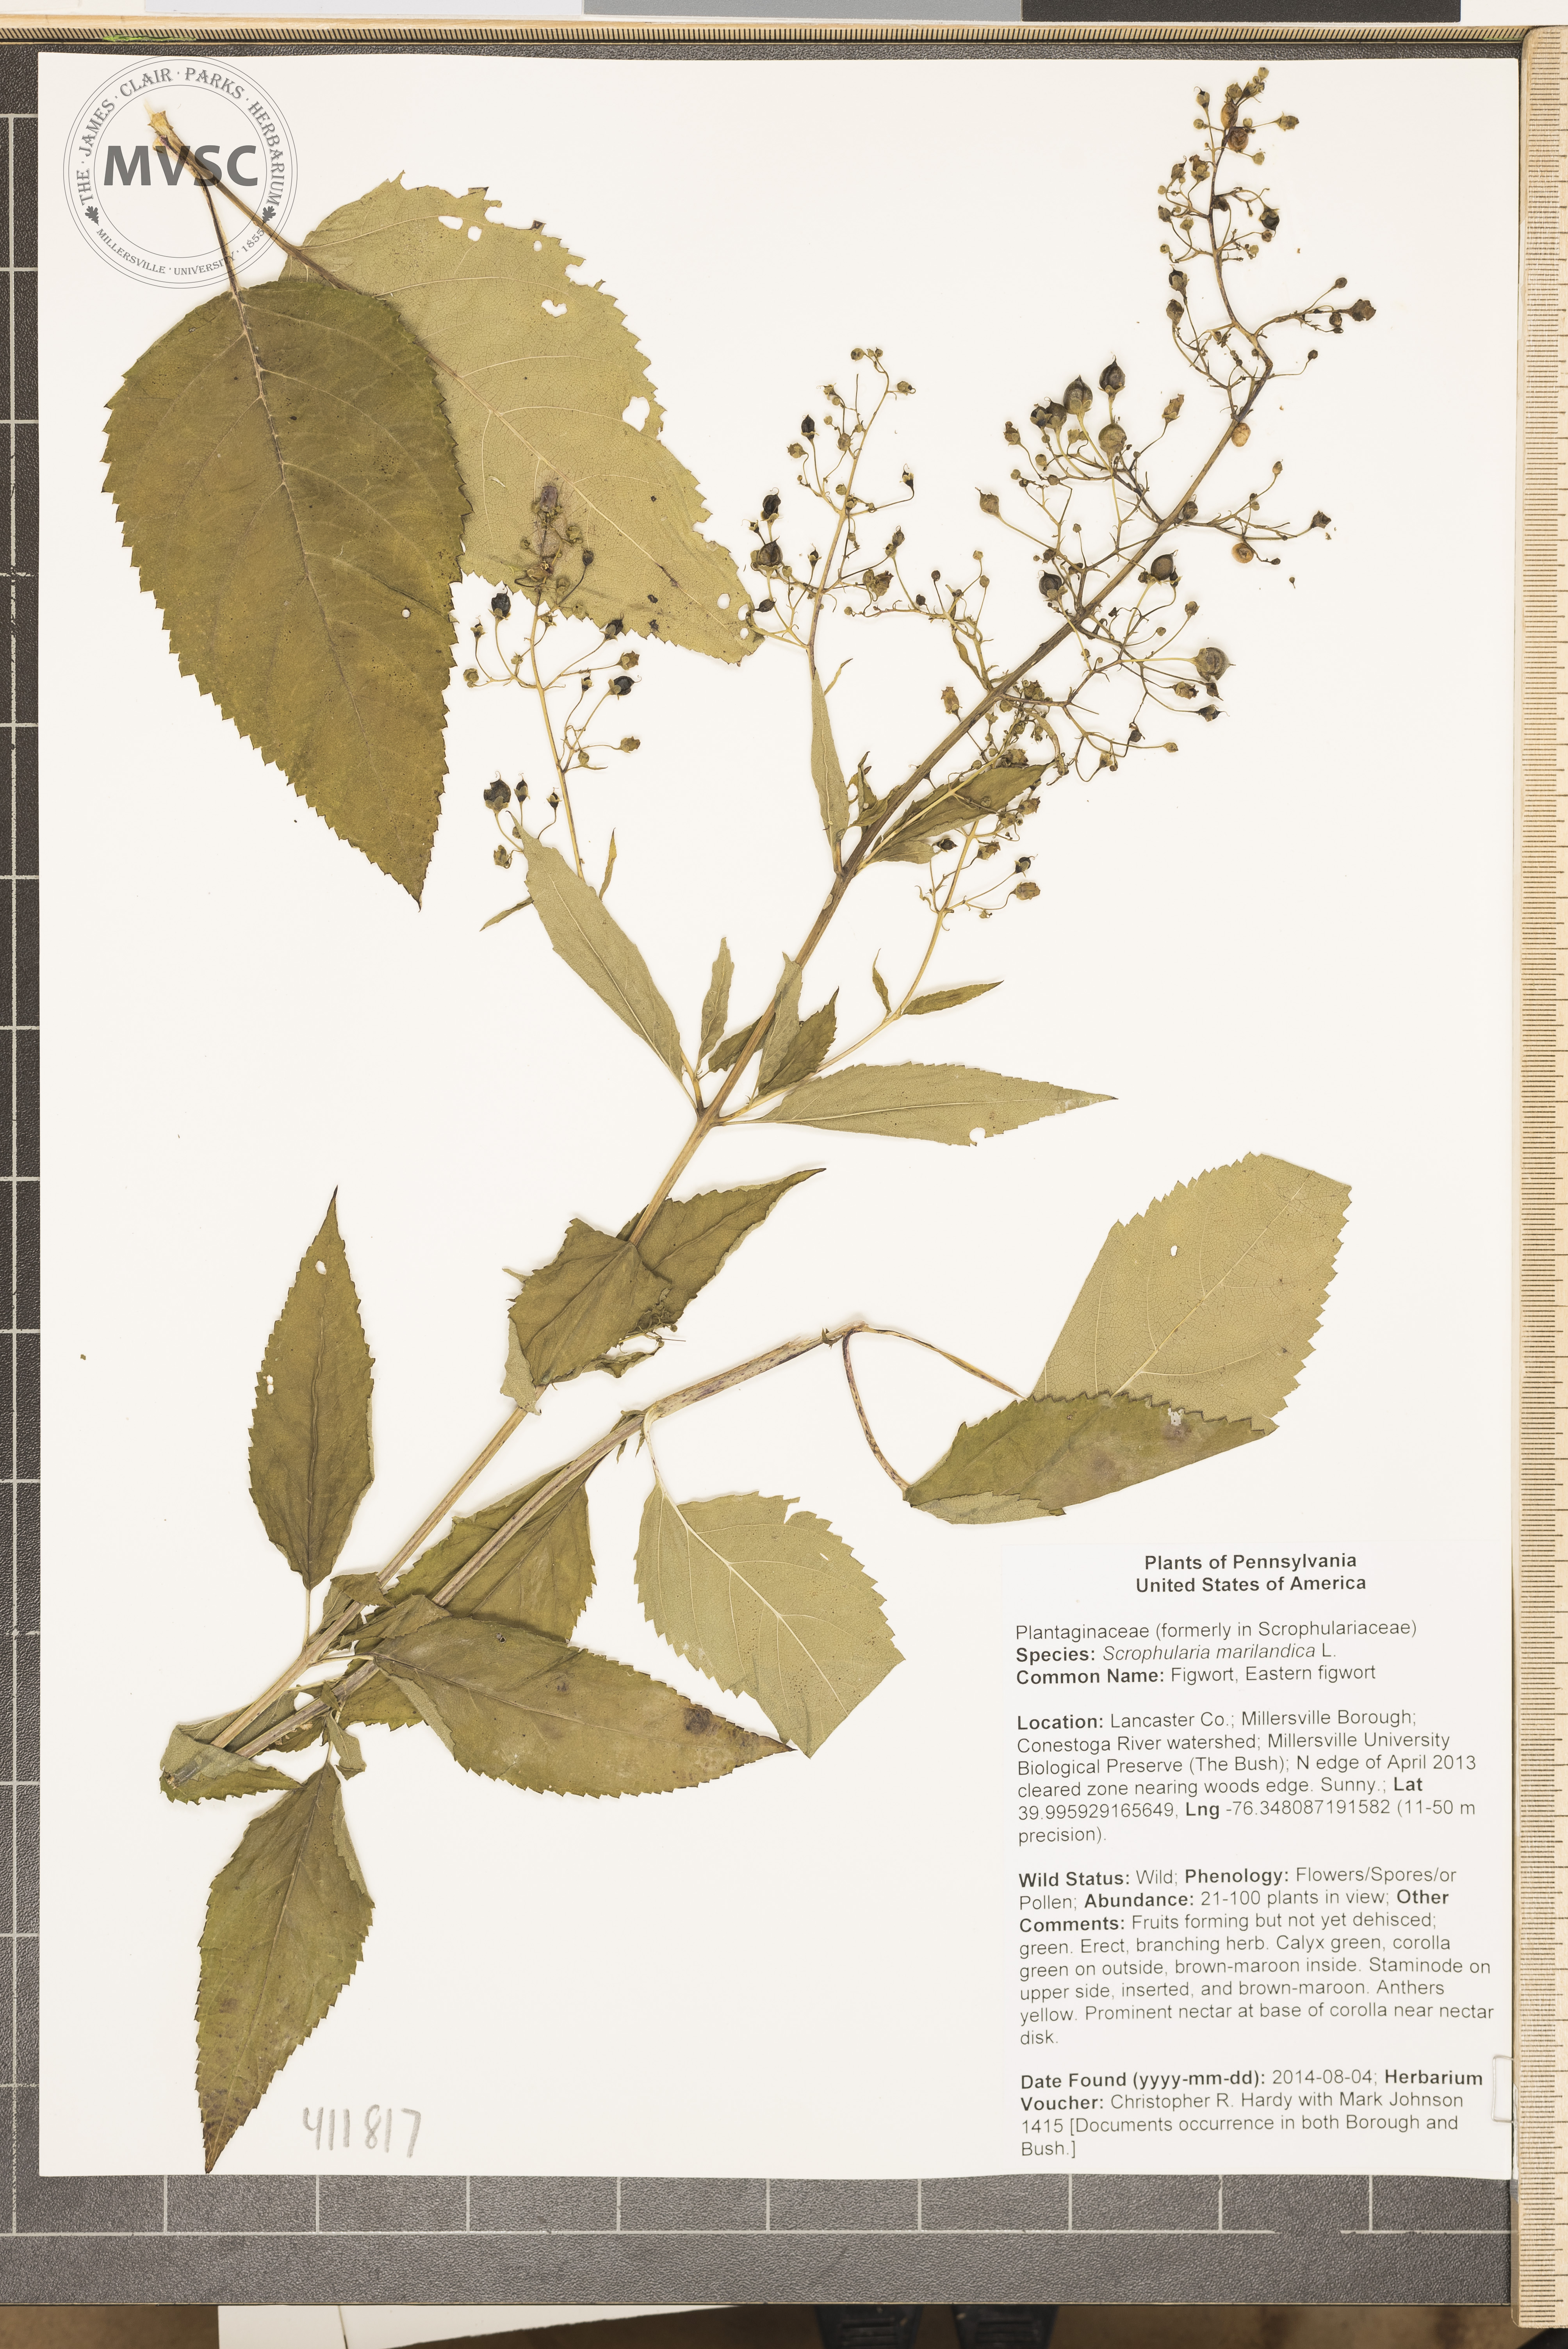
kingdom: Plantae
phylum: Tracheophyta
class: Magnoliopsida
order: Lamiales
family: Scrophulariaceae
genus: Scrophularia
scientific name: Scrophularia marilandica
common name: Eastern figwort
